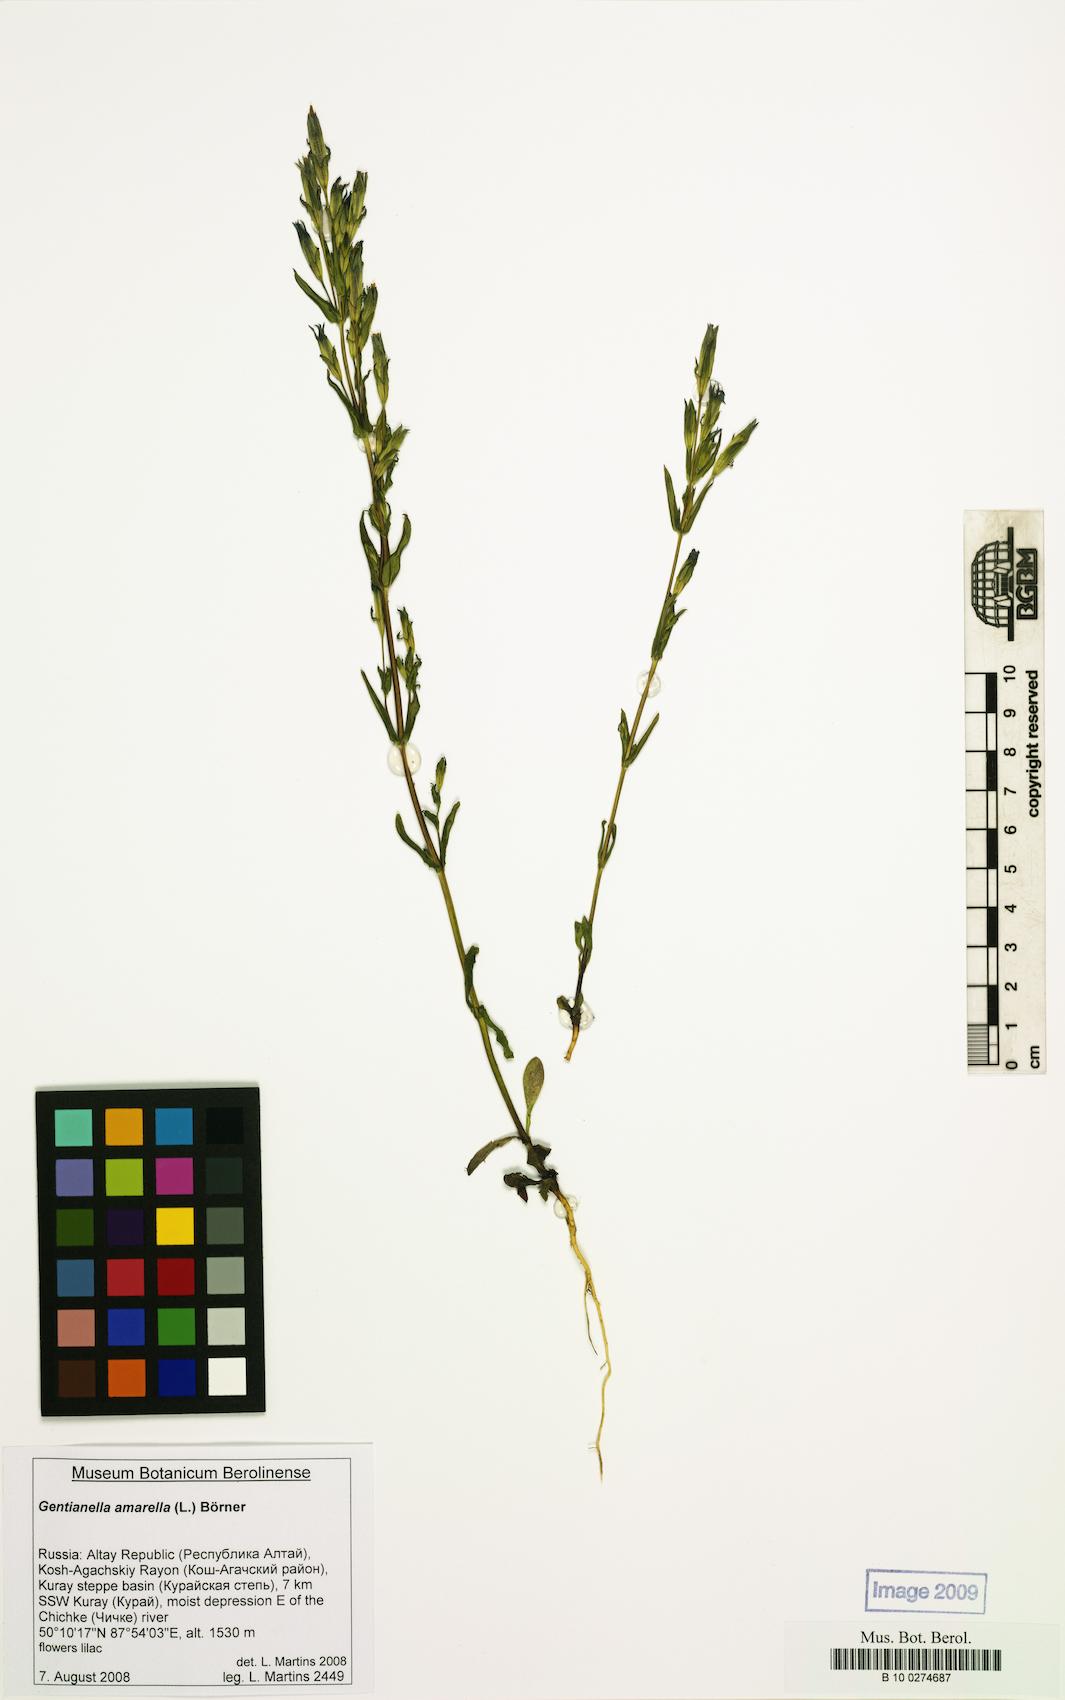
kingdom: Plantae
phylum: Tracheophyta
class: Magnoliopsida
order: Gentianales
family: Gentianaceae
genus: Gentianella
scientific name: Gentianella amarella
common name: Autumn gentian
